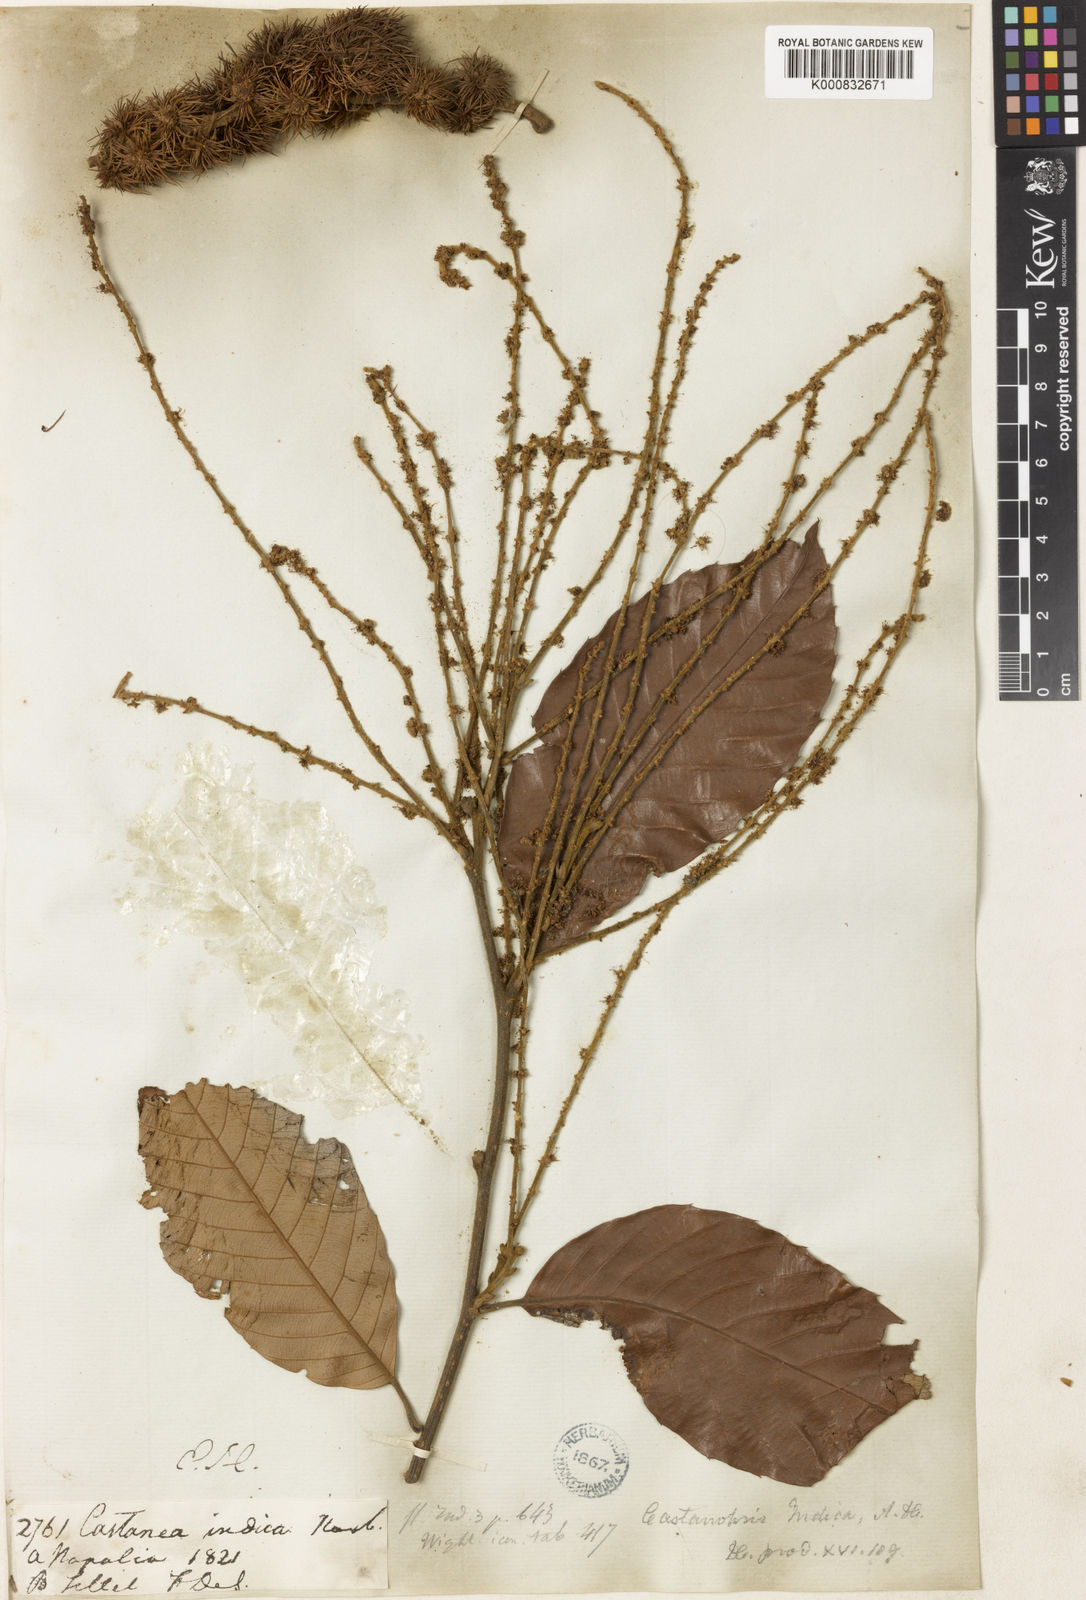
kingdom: Plantae
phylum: Tracheophyta
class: Magnoliopsida
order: Fagales
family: Fagaceae
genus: Castanopsis
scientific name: Castanopsis indica
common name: Indian-chestnut
